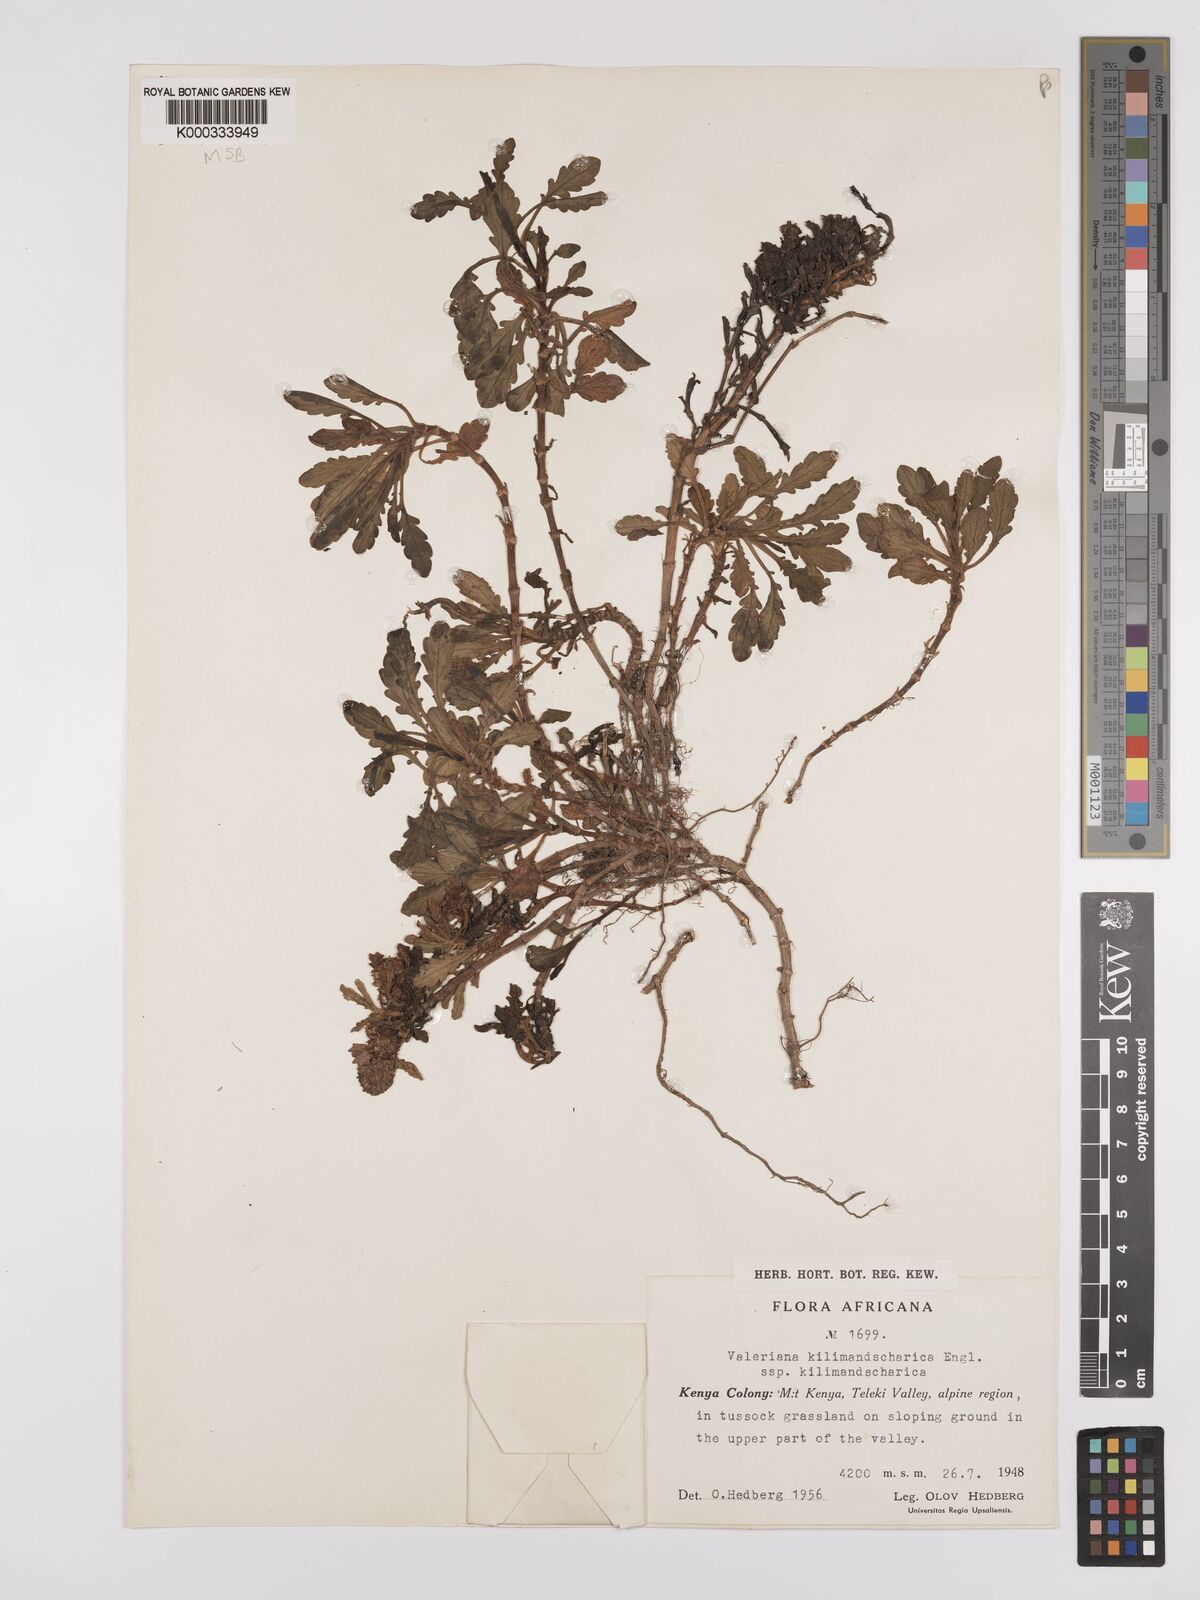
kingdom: Plantae
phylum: Tracheophyta
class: Magnoliopsida
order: Dipsacales
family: Caprifoliaceae
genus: Valeriana
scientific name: Valeriana kilimandscharica
